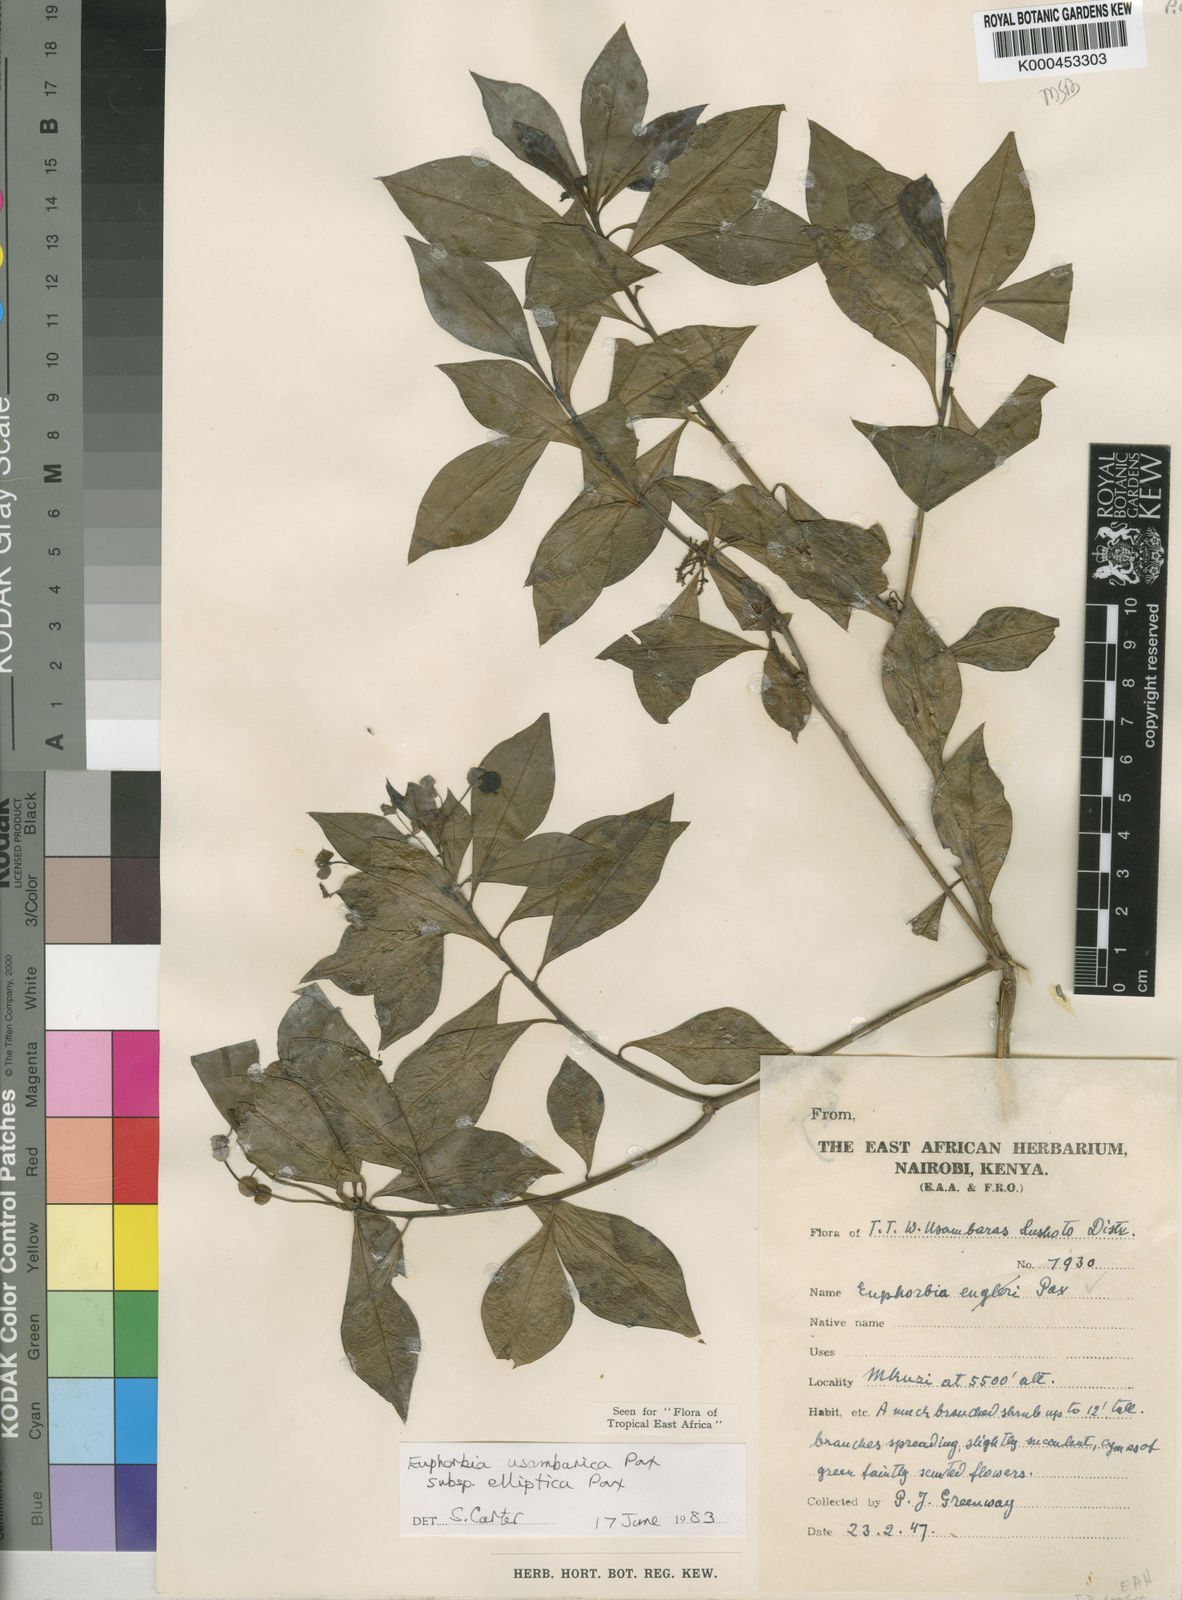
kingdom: Plantae
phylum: Tracheophyta
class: Magnoliopsida
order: Malpighiales
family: Euphorbiaceae
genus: Euphorbia
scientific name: Euphorbia usambarica
